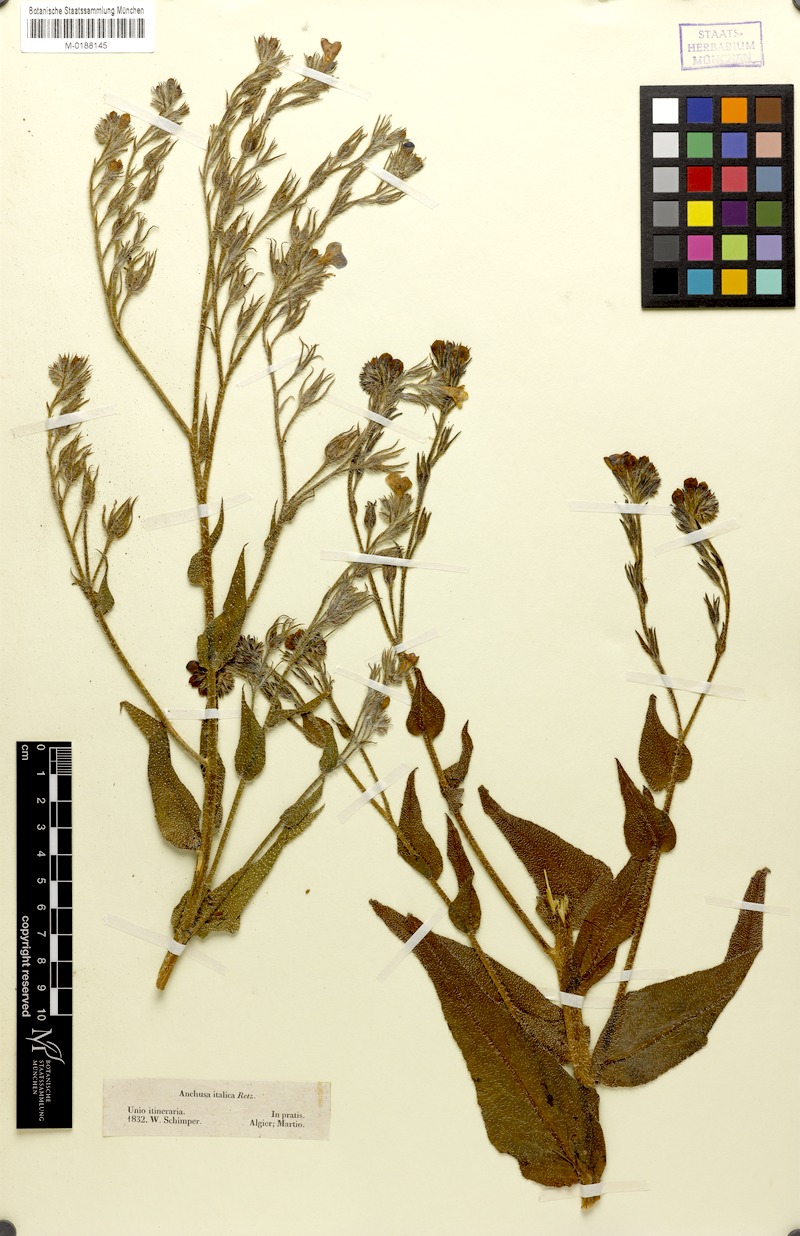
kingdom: Plantae
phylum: Tracheophyta
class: Magnoliopsida
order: Boraginales
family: Boraginaceae
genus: Anchusa
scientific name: Anchusa azurea
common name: Garden anchusa
